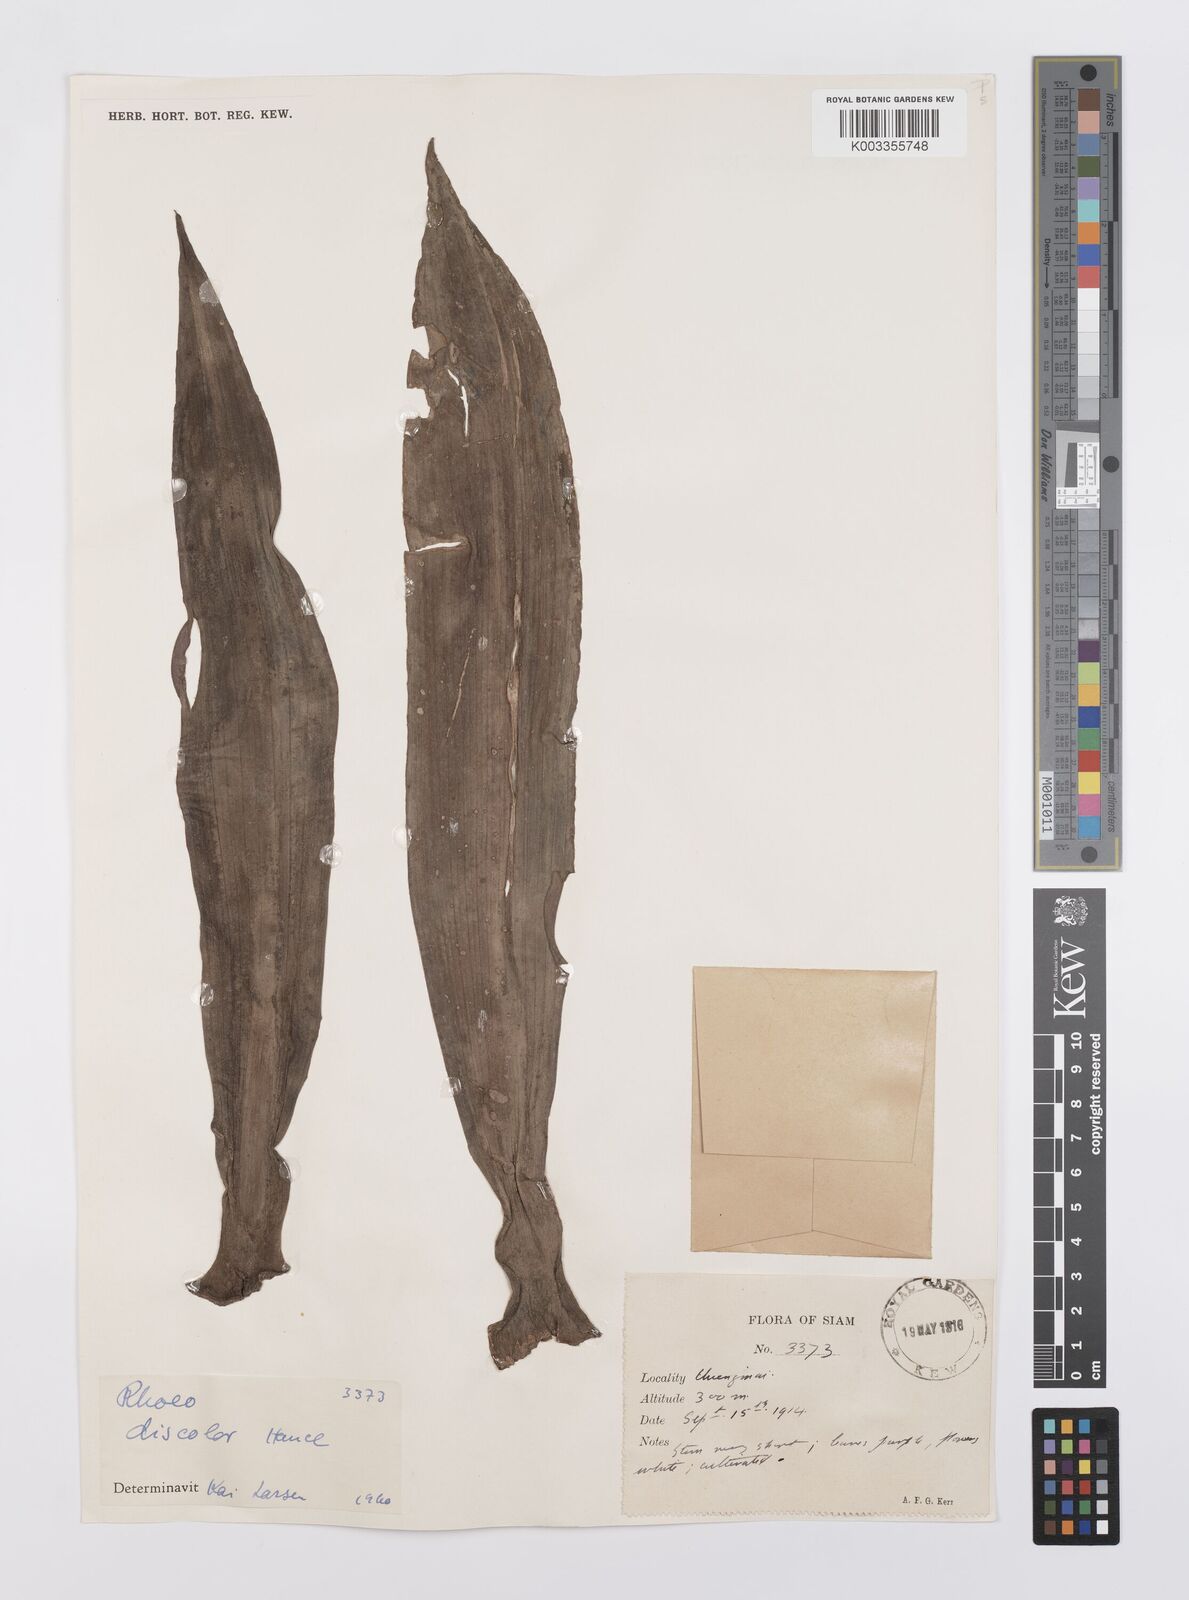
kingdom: Plantae
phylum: Tracheophyta
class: Liliopsida
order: Commelinales
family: Commelinaceae
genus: Tradescantia
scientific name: Tradescantia spathacea
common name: Boatlily
